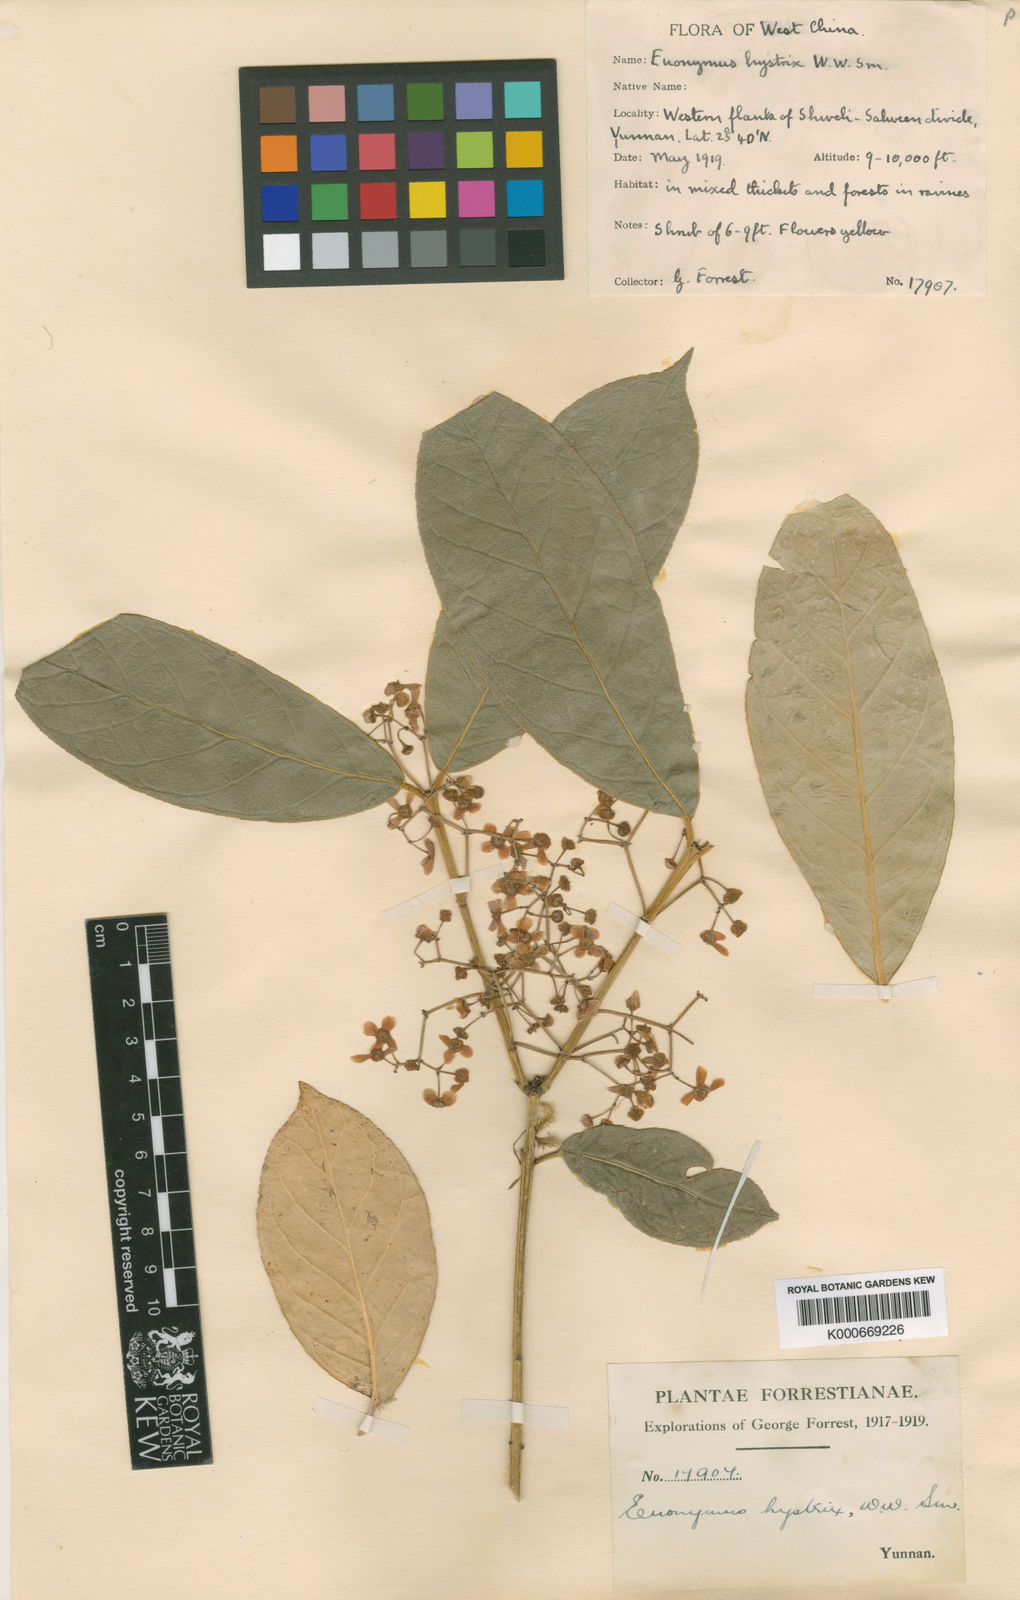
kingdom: Plantae
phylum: Tracheophyta
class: Magnoliopsida
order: Celastrales
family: Celastraceae
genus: Euonymus
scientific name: Euonymus balansae
